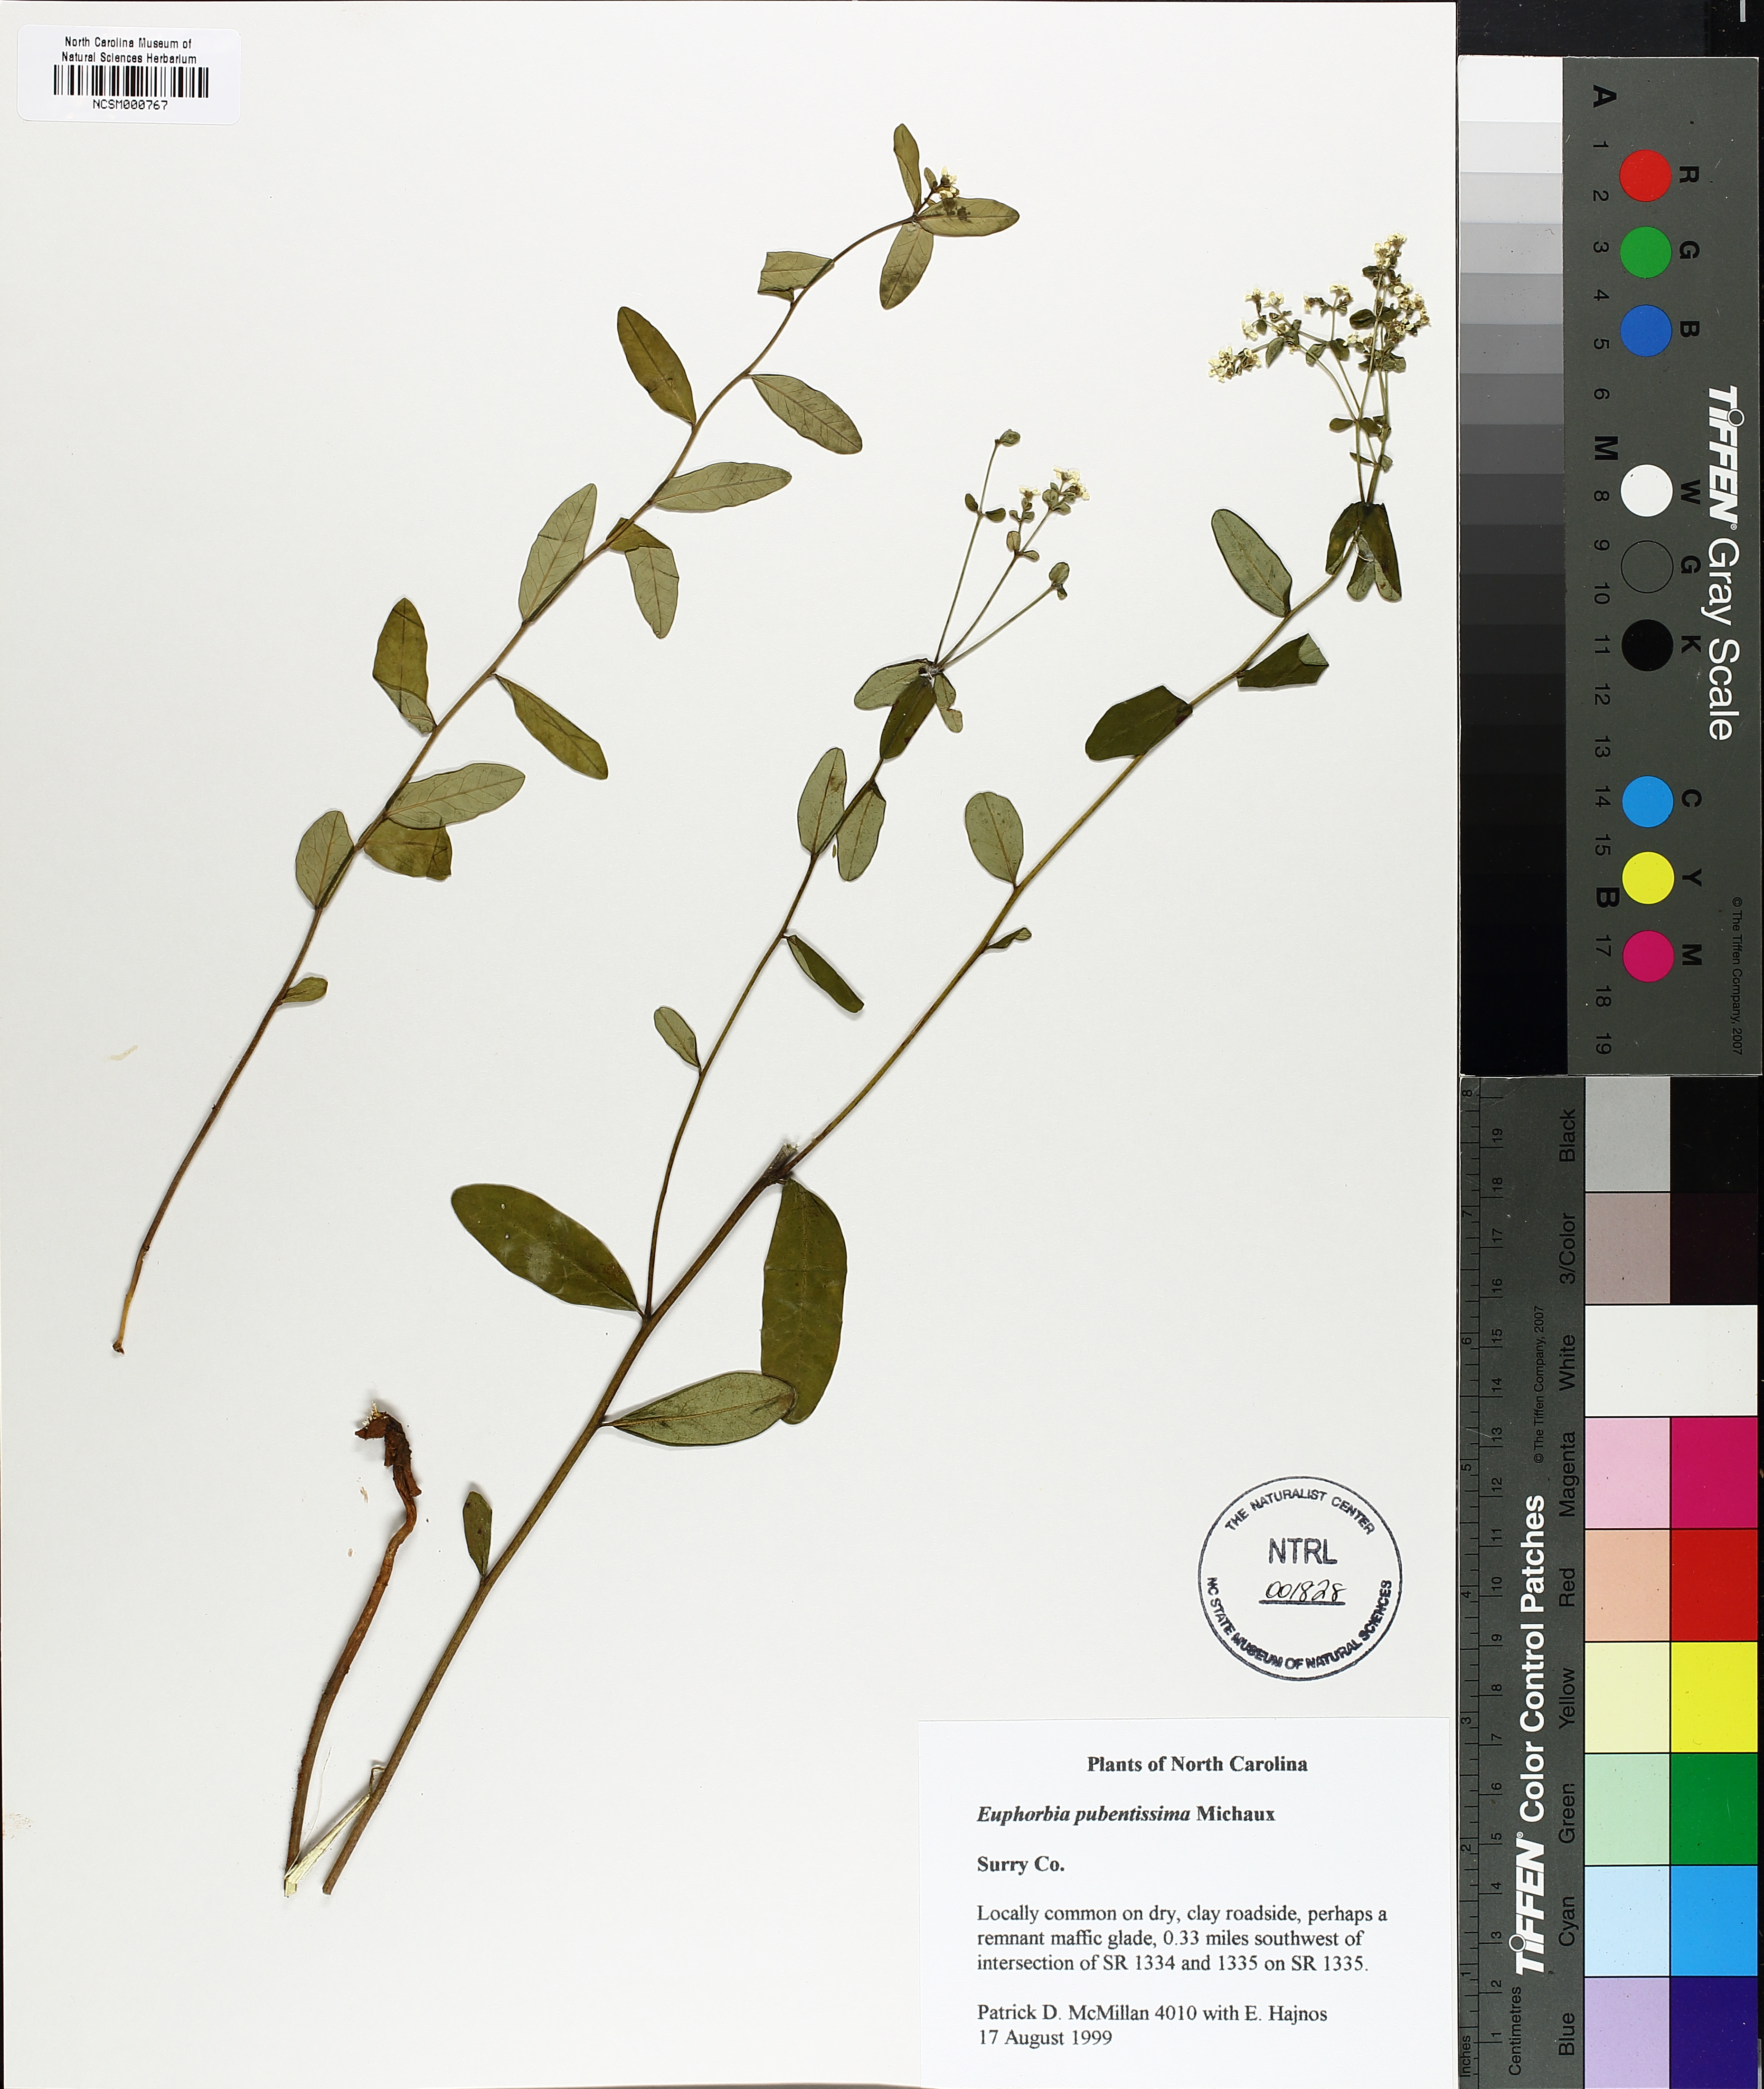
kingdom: Plantae
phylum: Tracheophyta
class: Magnoliopsida
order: Malpighiales
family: Euphorbiaceae
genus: Euphorbia
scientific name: Euphorbia pubentissima
